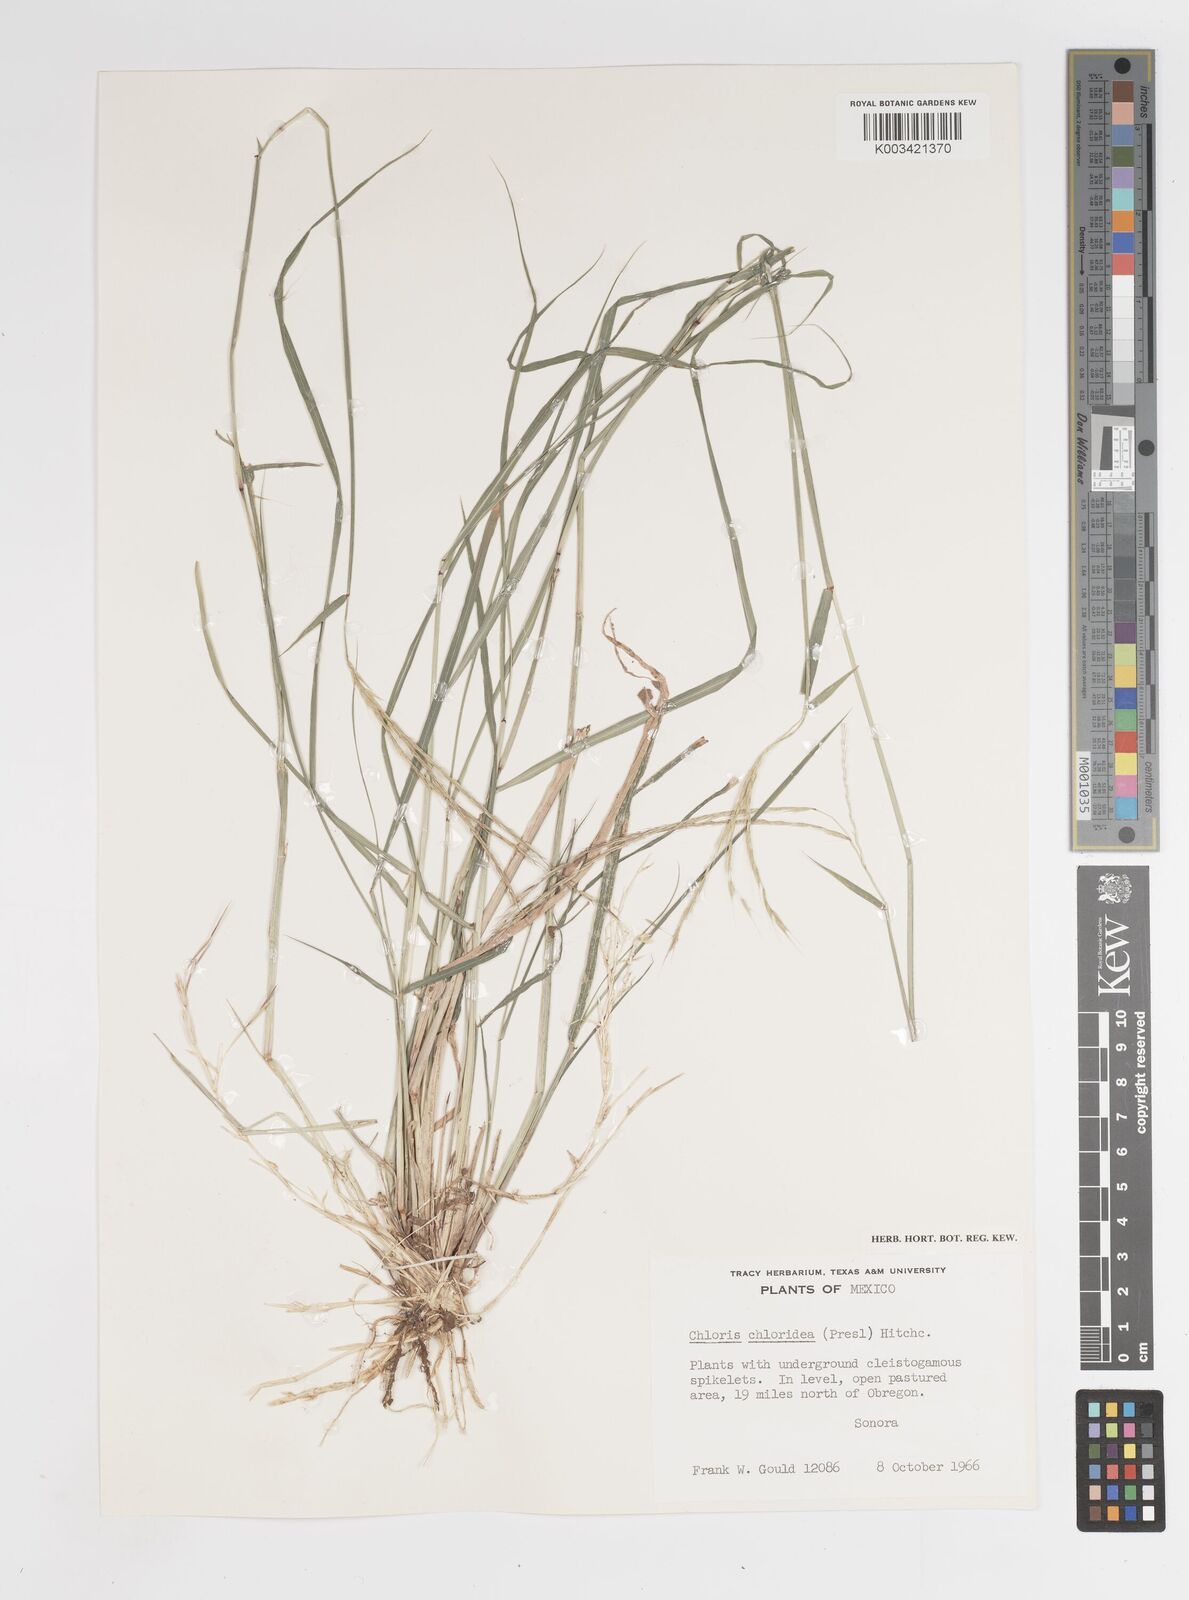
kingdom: Plantae
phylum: Tracheophyta
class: Liliopsida
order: Poales
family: Poaceae
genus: Tetrapogon
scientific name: Tetrapogon chlorideus
